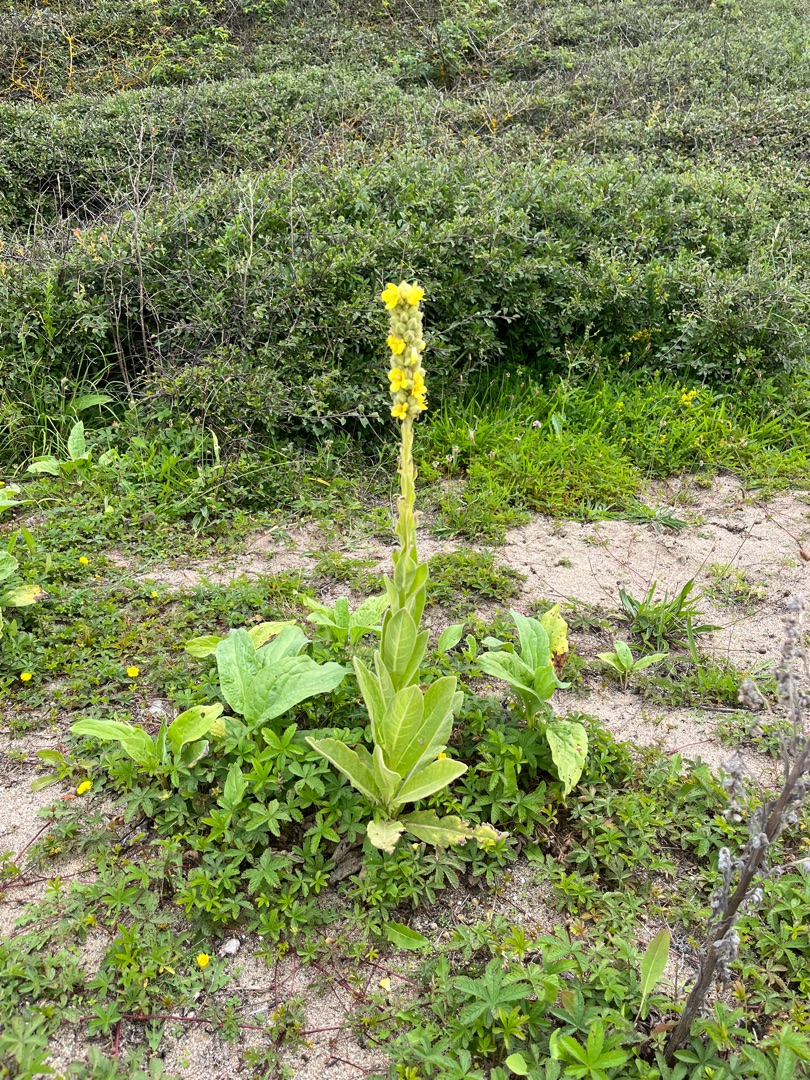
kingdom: Plantae
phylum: Tracheophyta
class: Magnoliopsida
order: Lamiales
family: Scrophulariaceae
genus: Verbascum
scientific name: Verbascum thapsus
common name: Filtbladet kongelys
